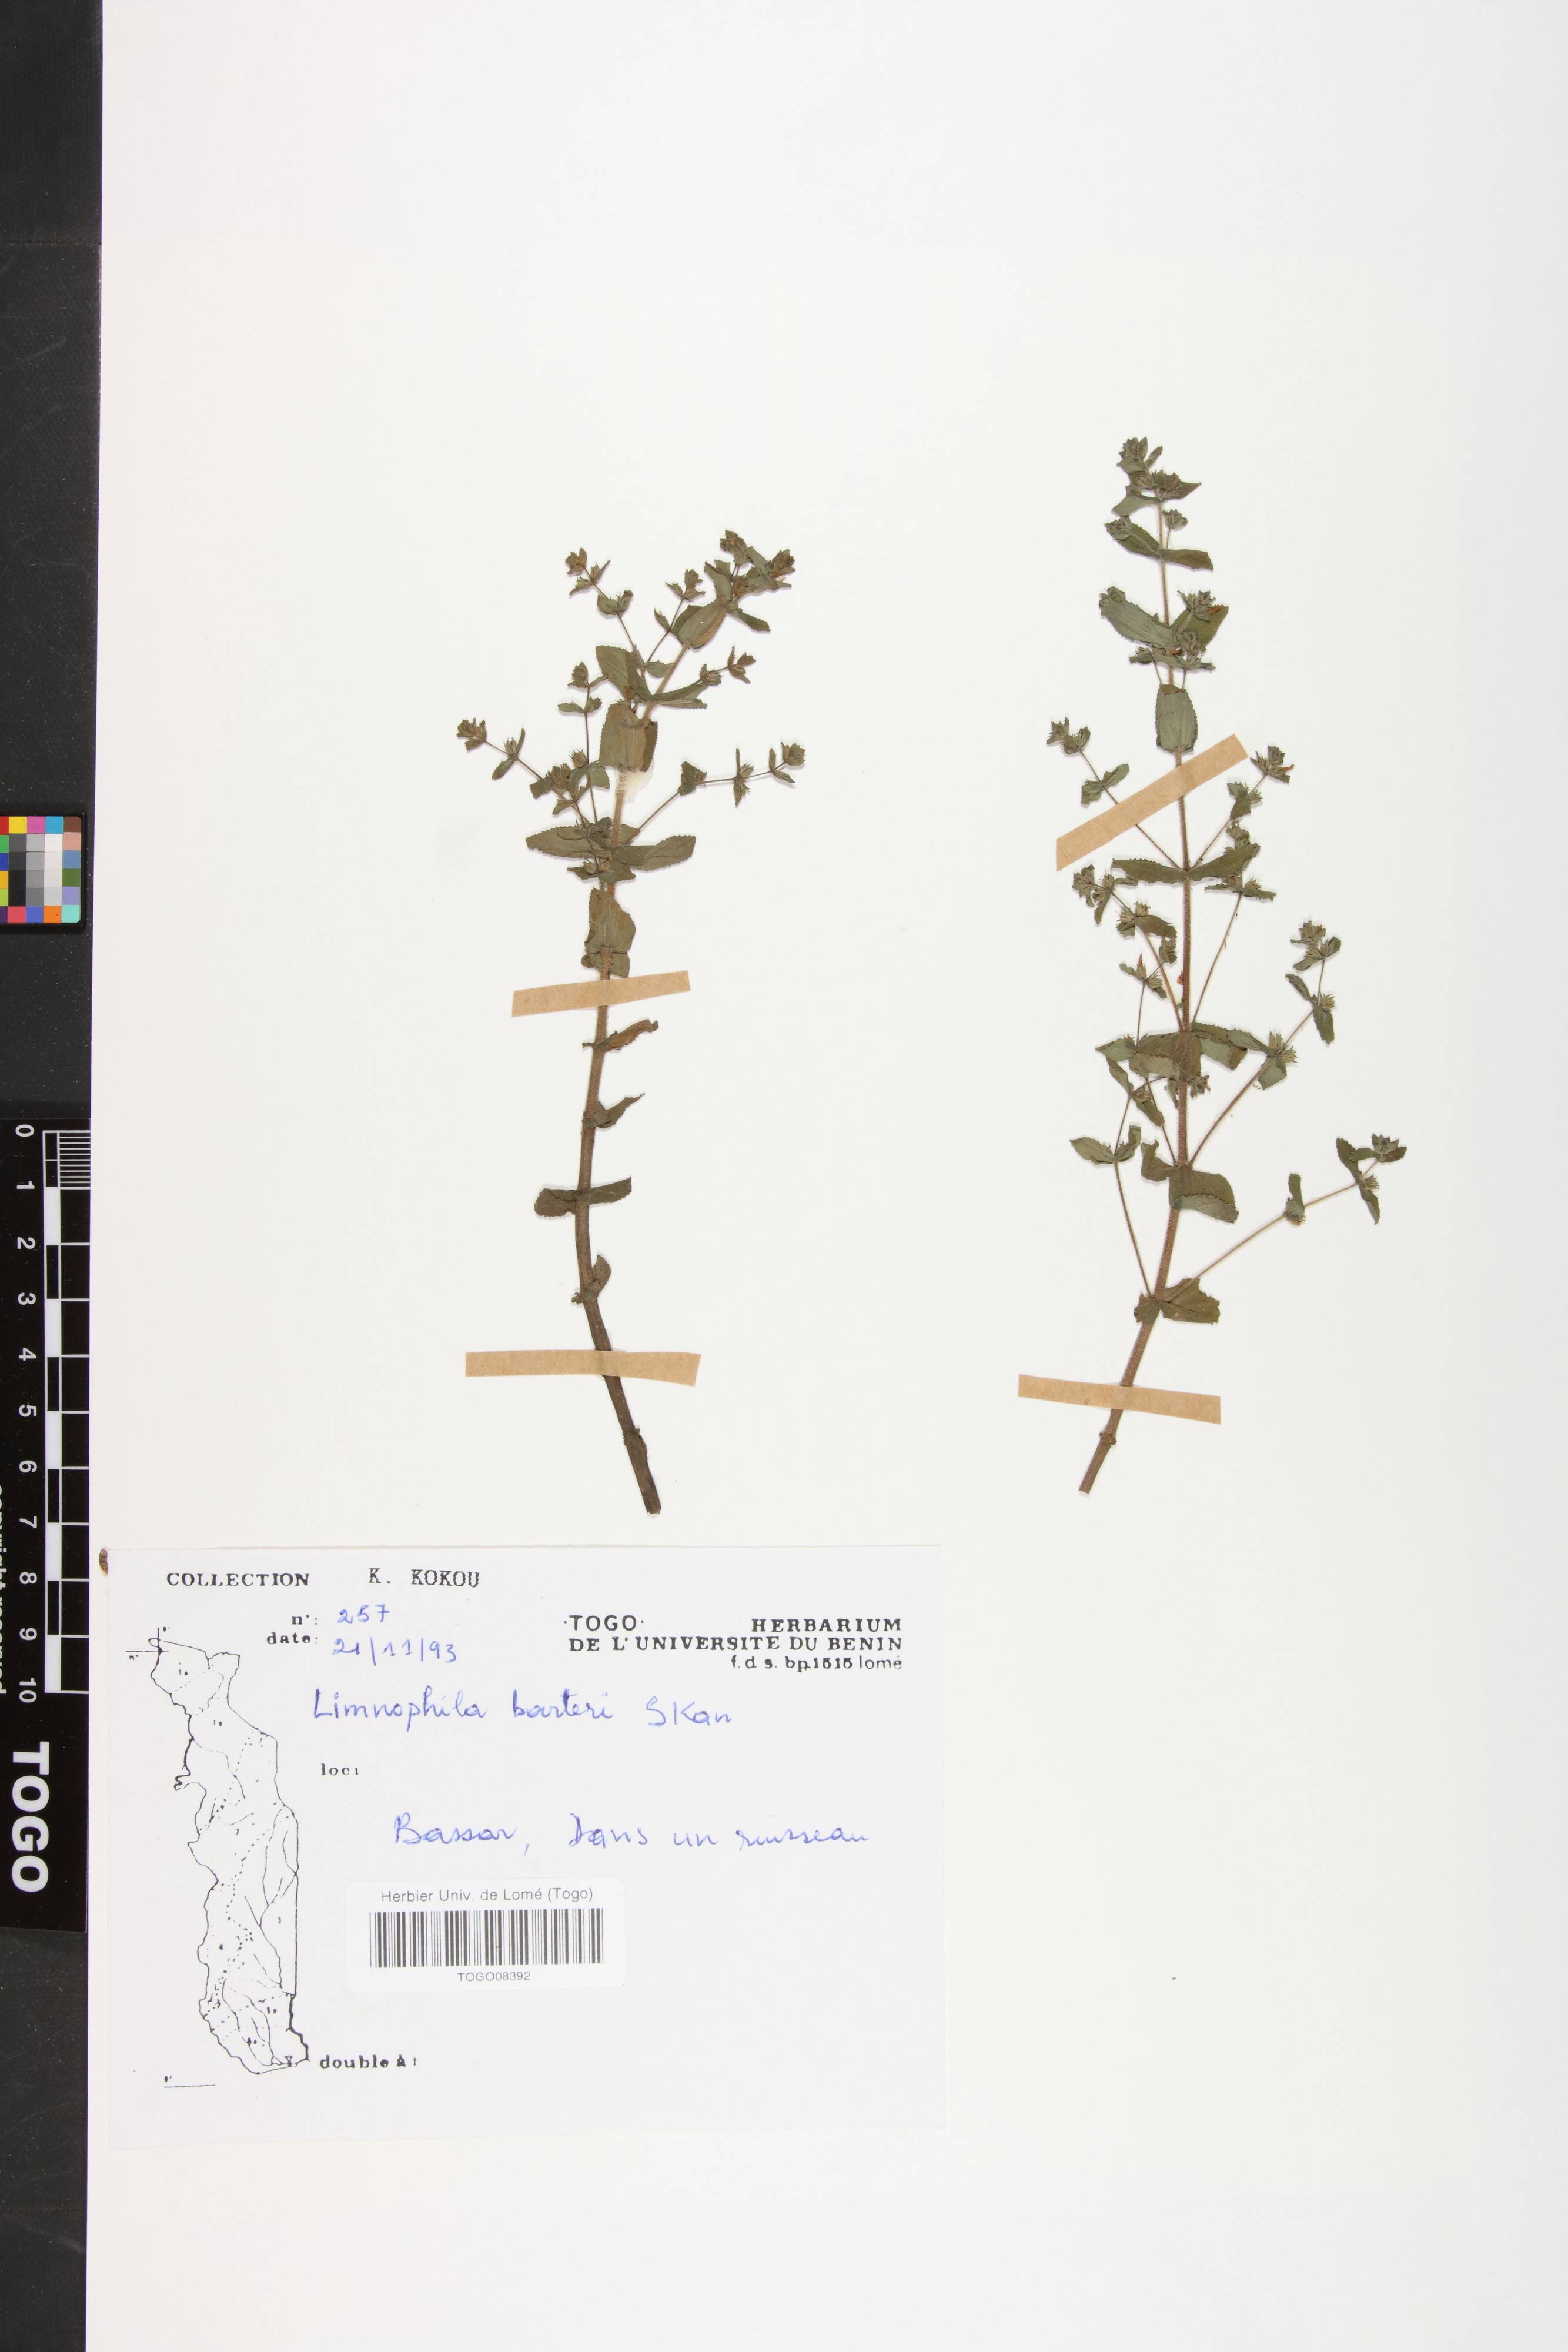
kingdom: Plantae
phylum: Tracheophyta
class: Magnoliopsida
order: Lamiales
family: Plantaginaceae
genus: Limnophila
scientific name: Limnophila barteri
